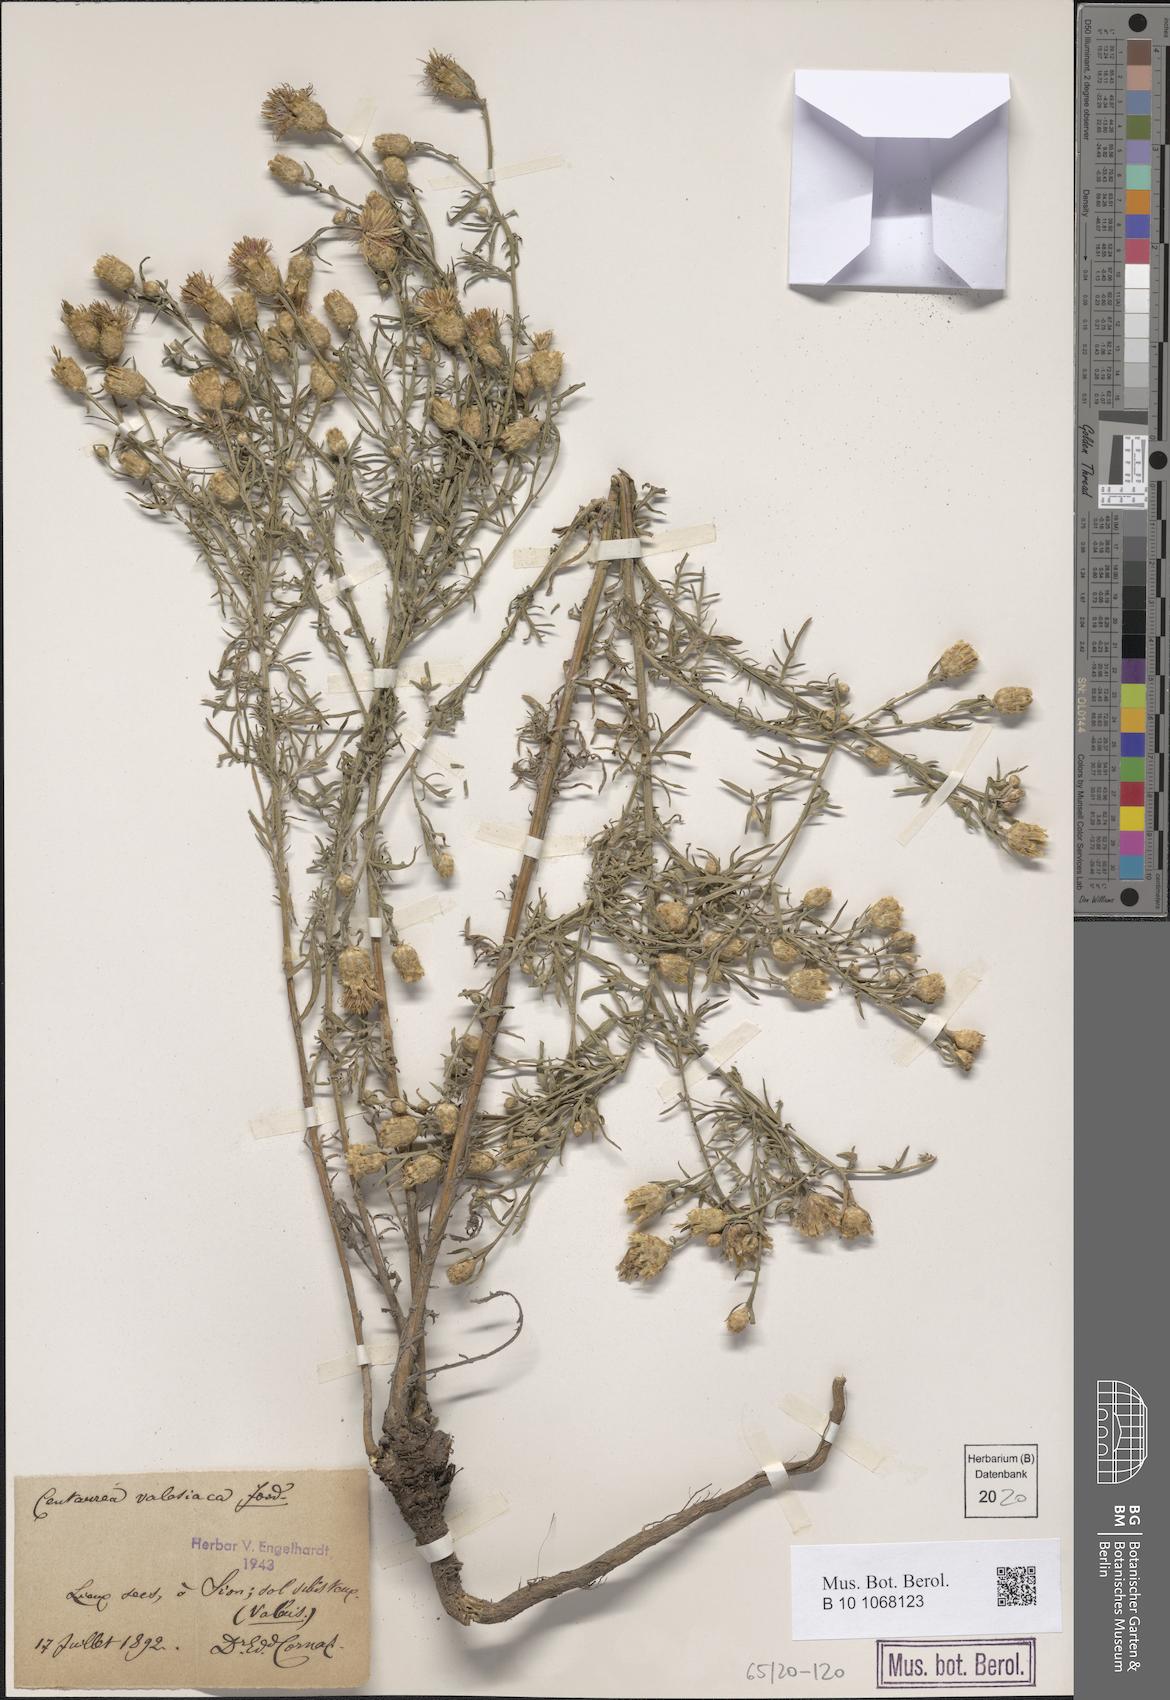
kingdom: Plantae
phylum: Tracheophyta
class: Magnoliopsida
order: Asterales
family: Asteraceae
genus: Centaurea
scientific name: Centaurea valesiaca
